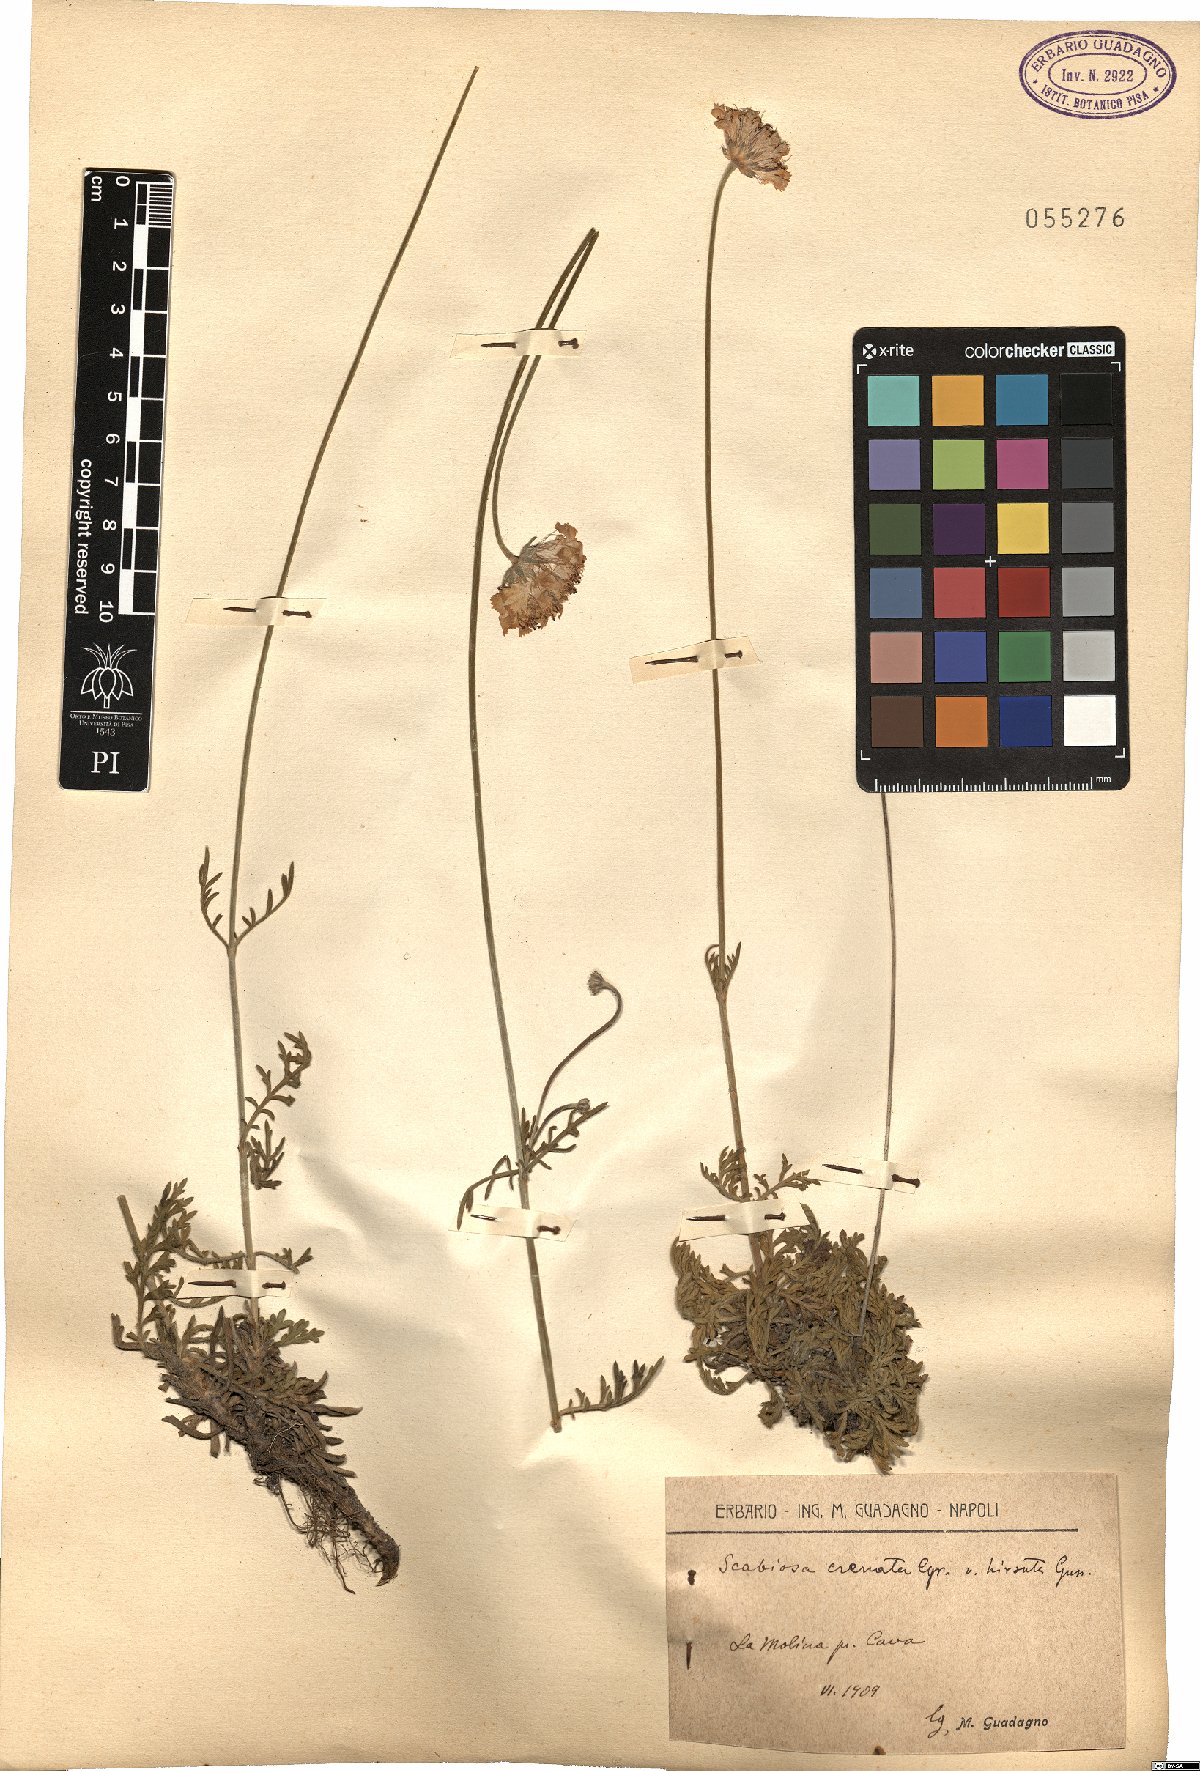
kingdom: Plantae
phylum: Tracheophyta
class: Magnoliopsida
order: Dipsacales
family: Caprifoliaceae
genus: Lomelosia
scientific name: Lomelosia crenata
